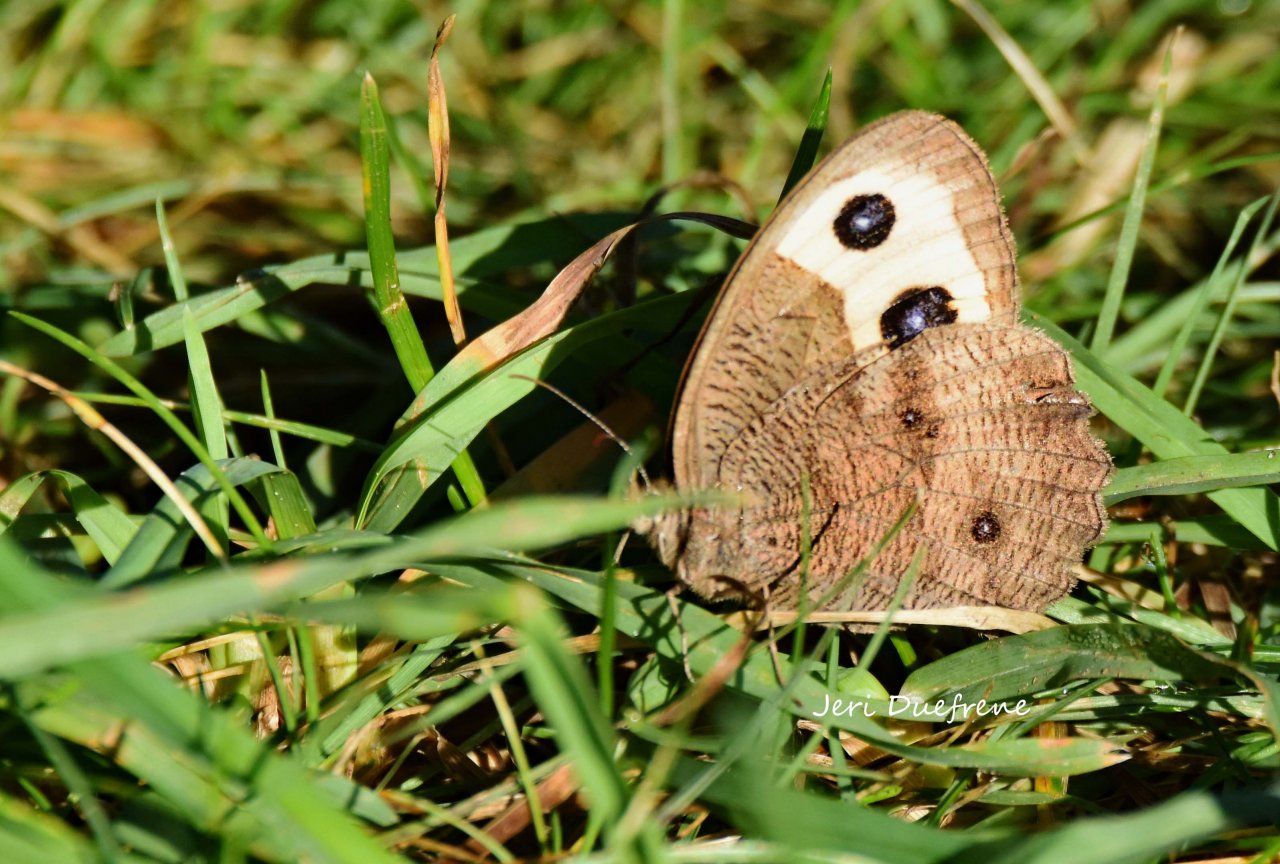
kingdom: Animalia
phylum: Arthropoda
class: Insecta
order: Lepidoptera
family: Nymphalidae
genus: Cercyonis
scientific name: Cercyonis pegala
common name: Common Wood-Nymph
